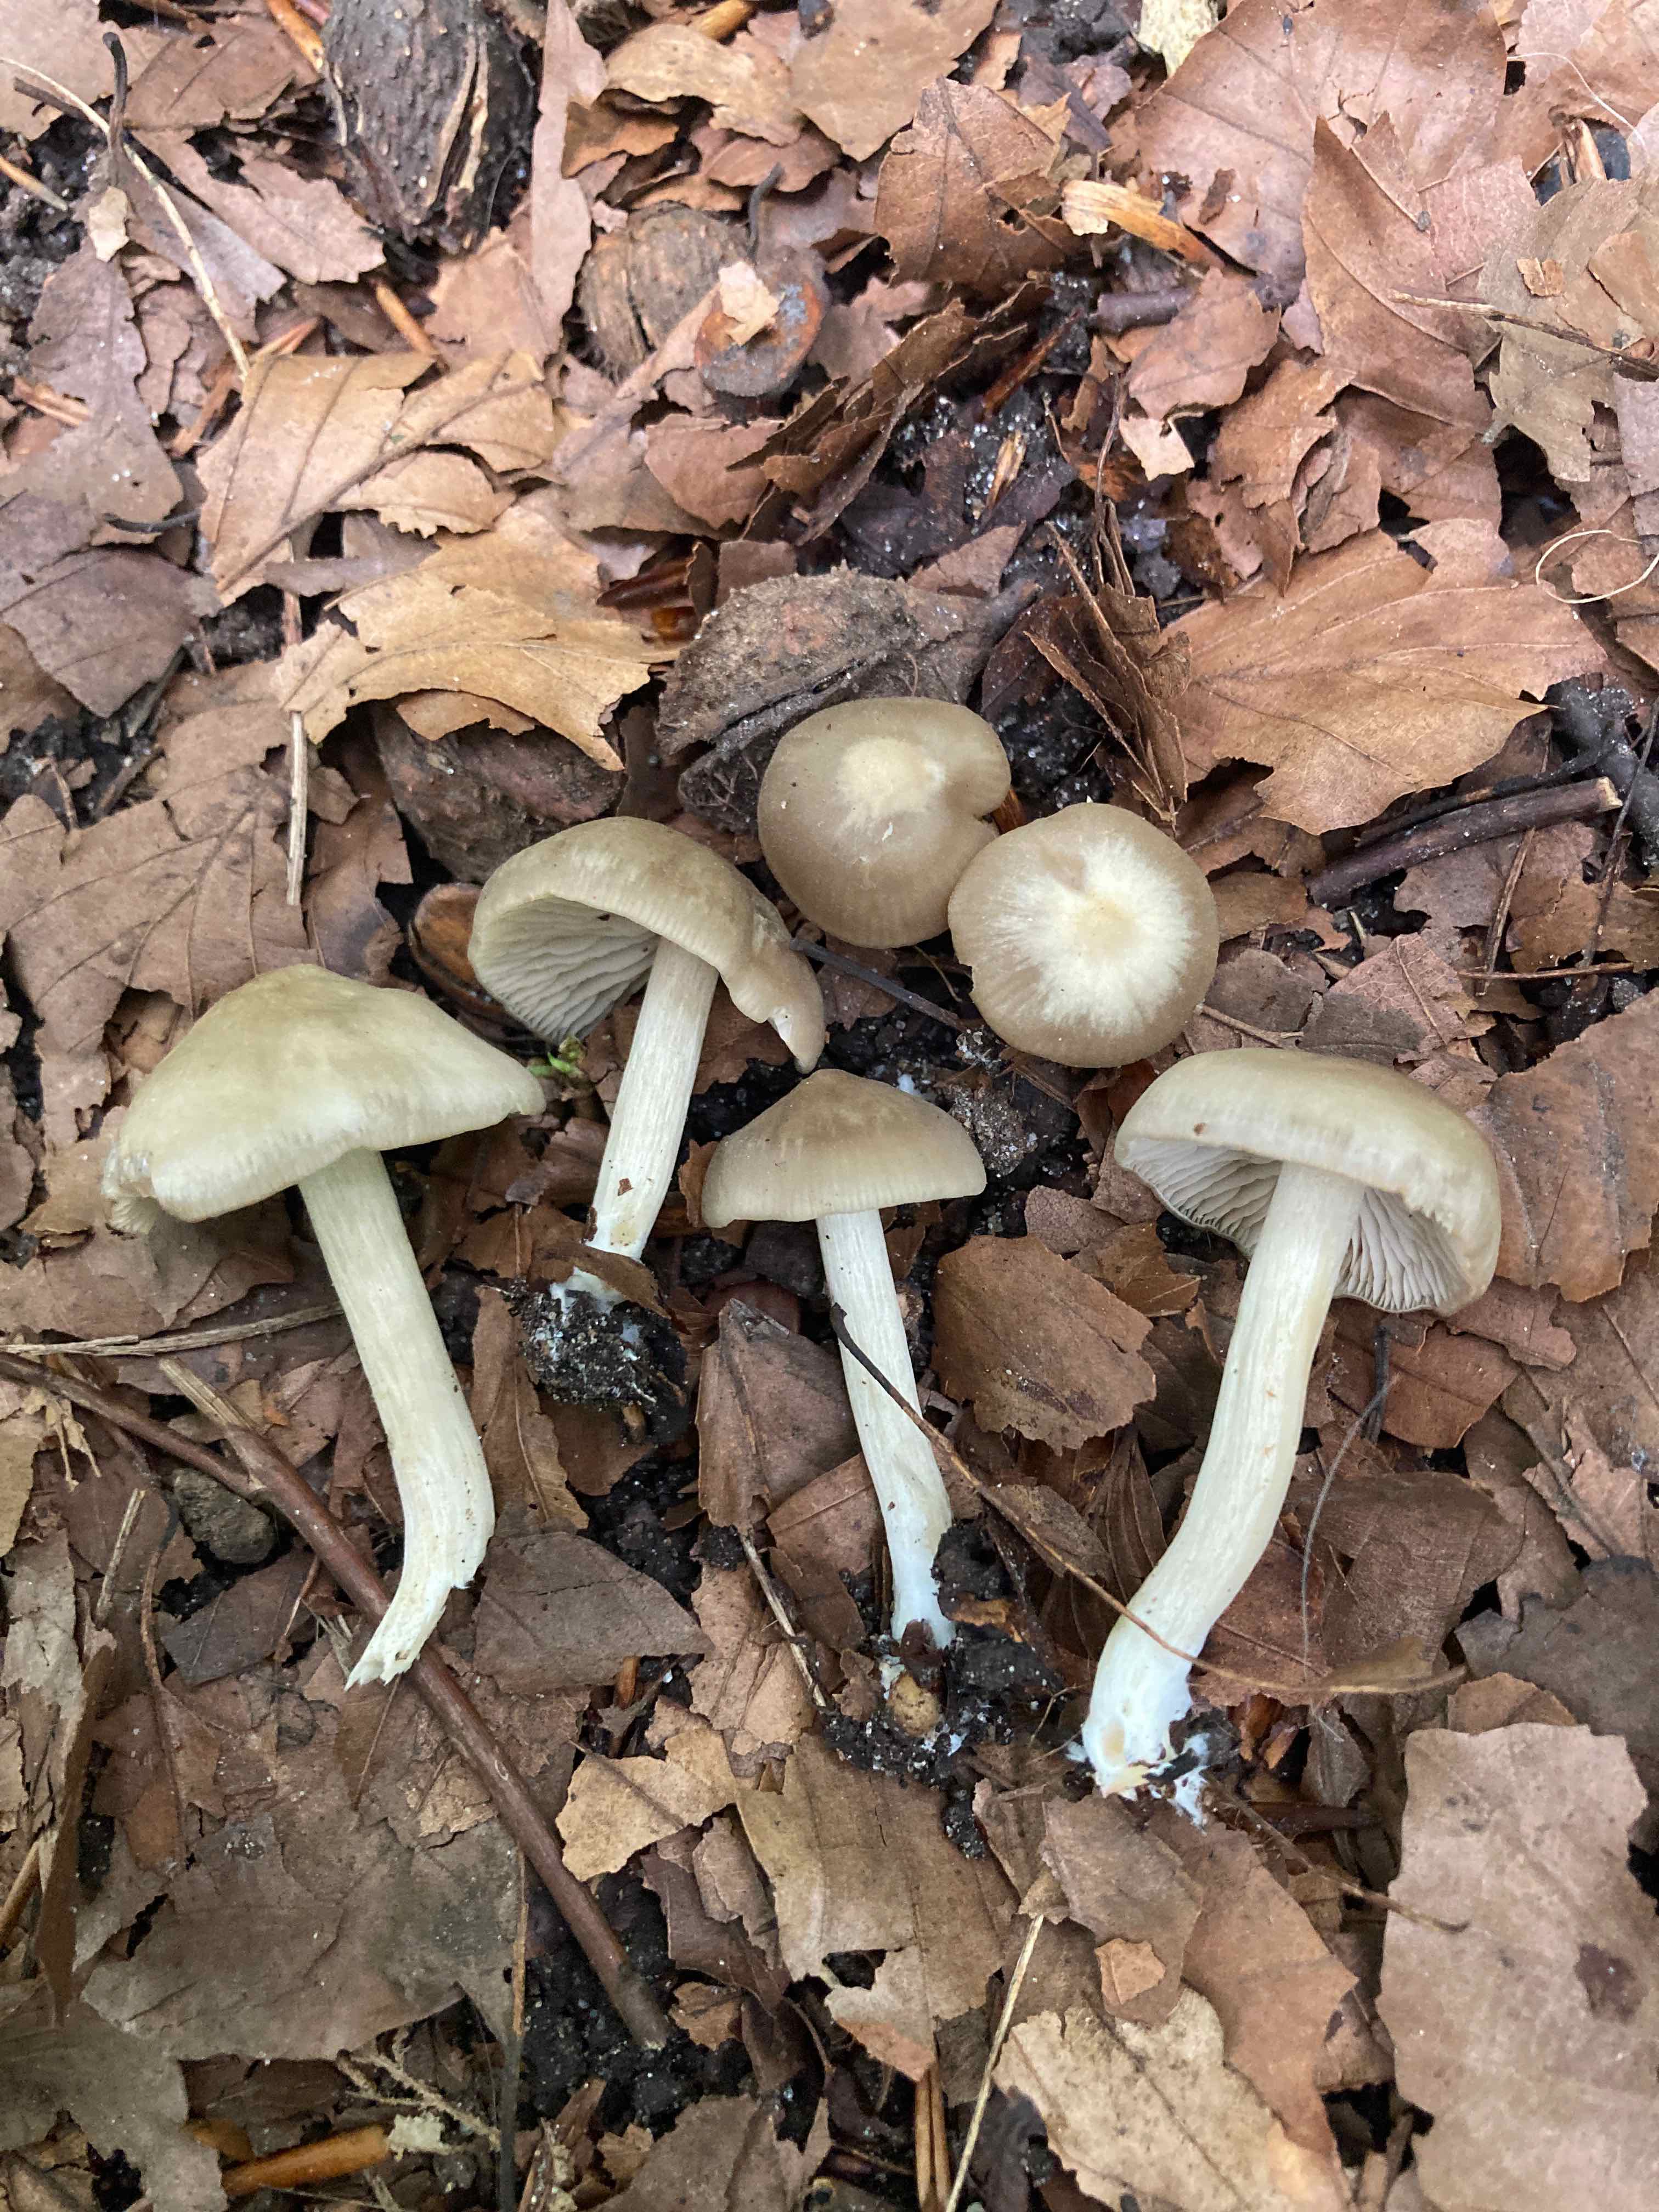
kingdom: Fungi
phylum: Basidiomycota
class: Agaricomycetes
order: Agaricales
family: Entolomataceae
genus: Entoloma
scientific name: Entoloma sordidulum
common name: smudsig rødblad
